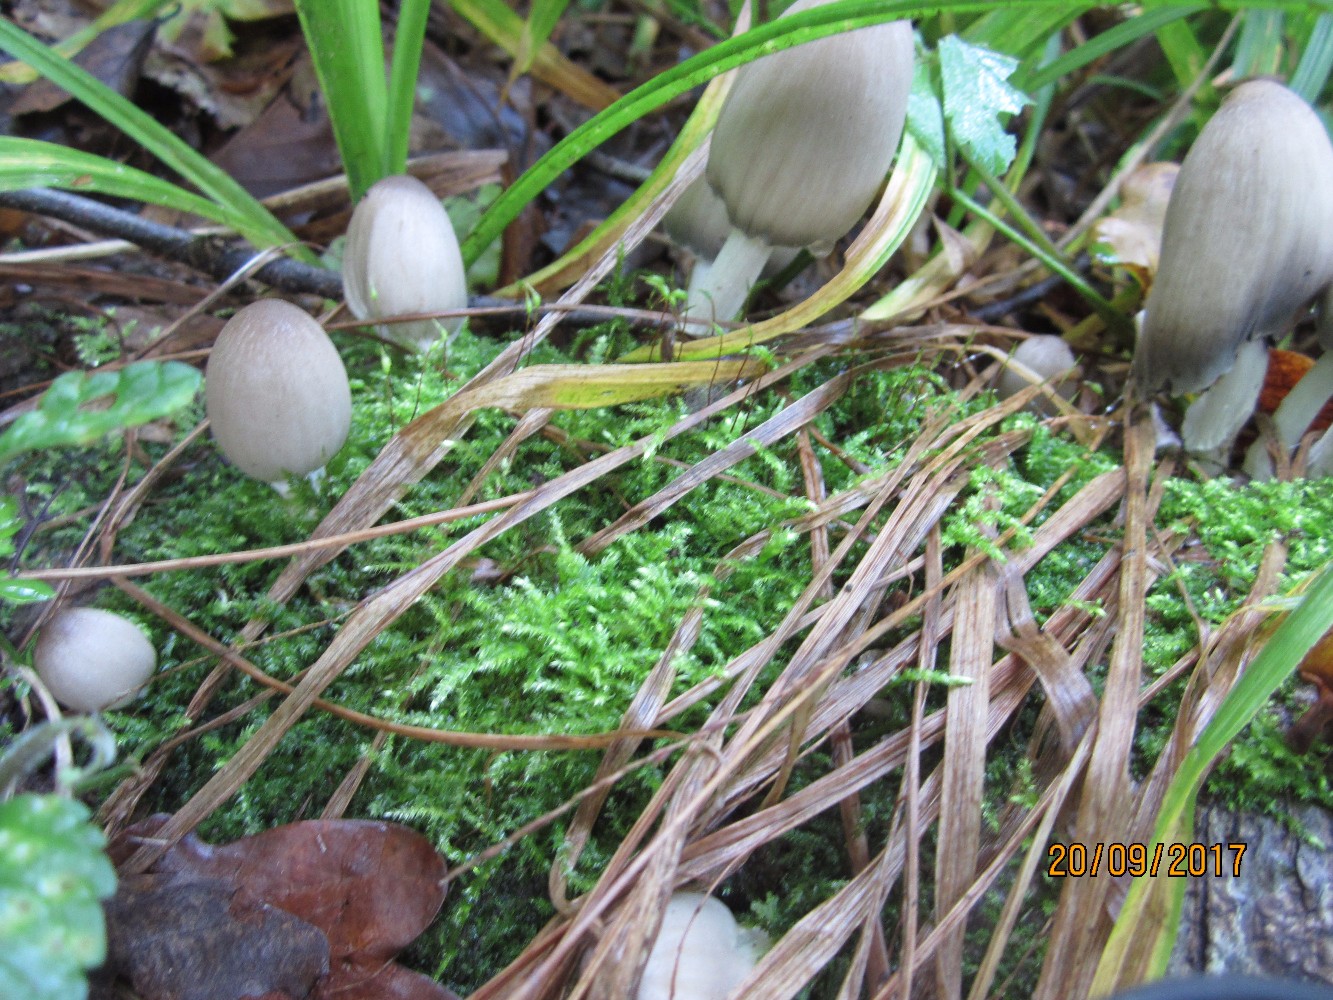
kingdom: Fungi
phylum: Basidiomycota
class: Agaricomycetes
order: Agaricales
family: Psathyrellaceae
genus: Coprinopsis
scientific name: Coprinopsis atramentaria
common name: almindelig blækhat
